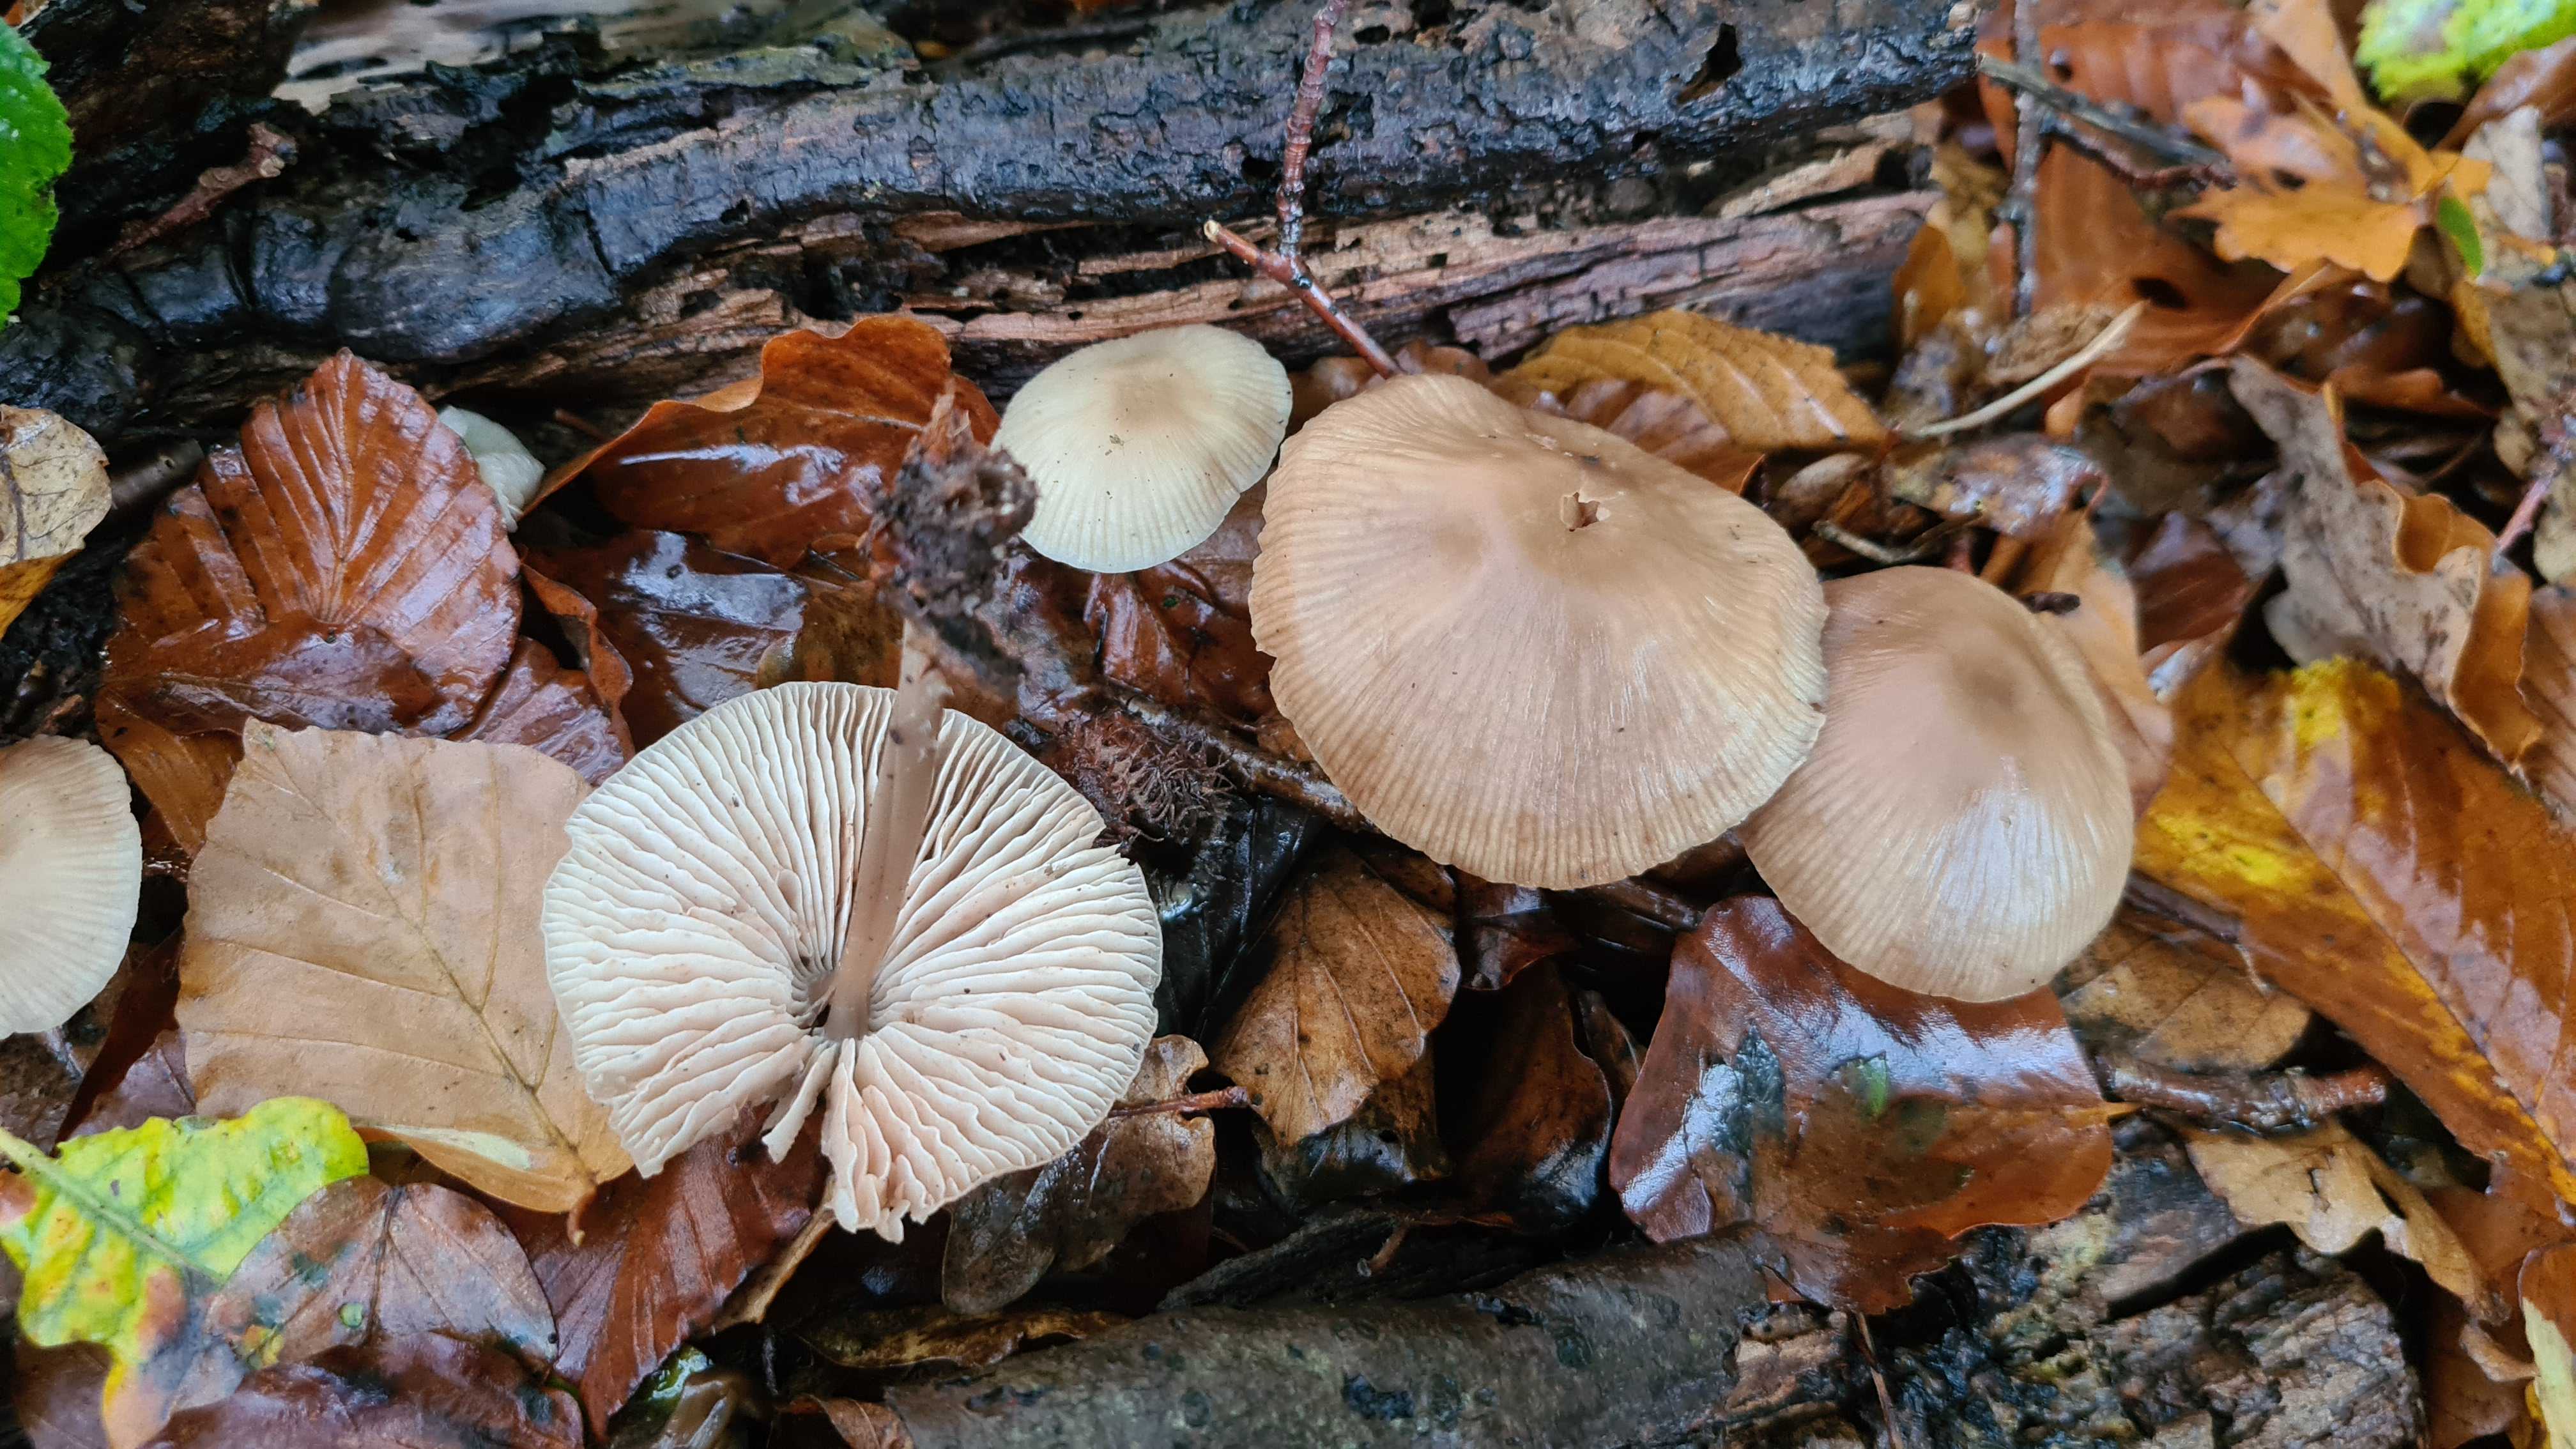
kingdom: Fungi
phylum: Basidiomycota
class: Agaricomycetes
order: Agaricales
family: Mycenaceae
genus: Mycena
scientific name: Mycena galericulata
